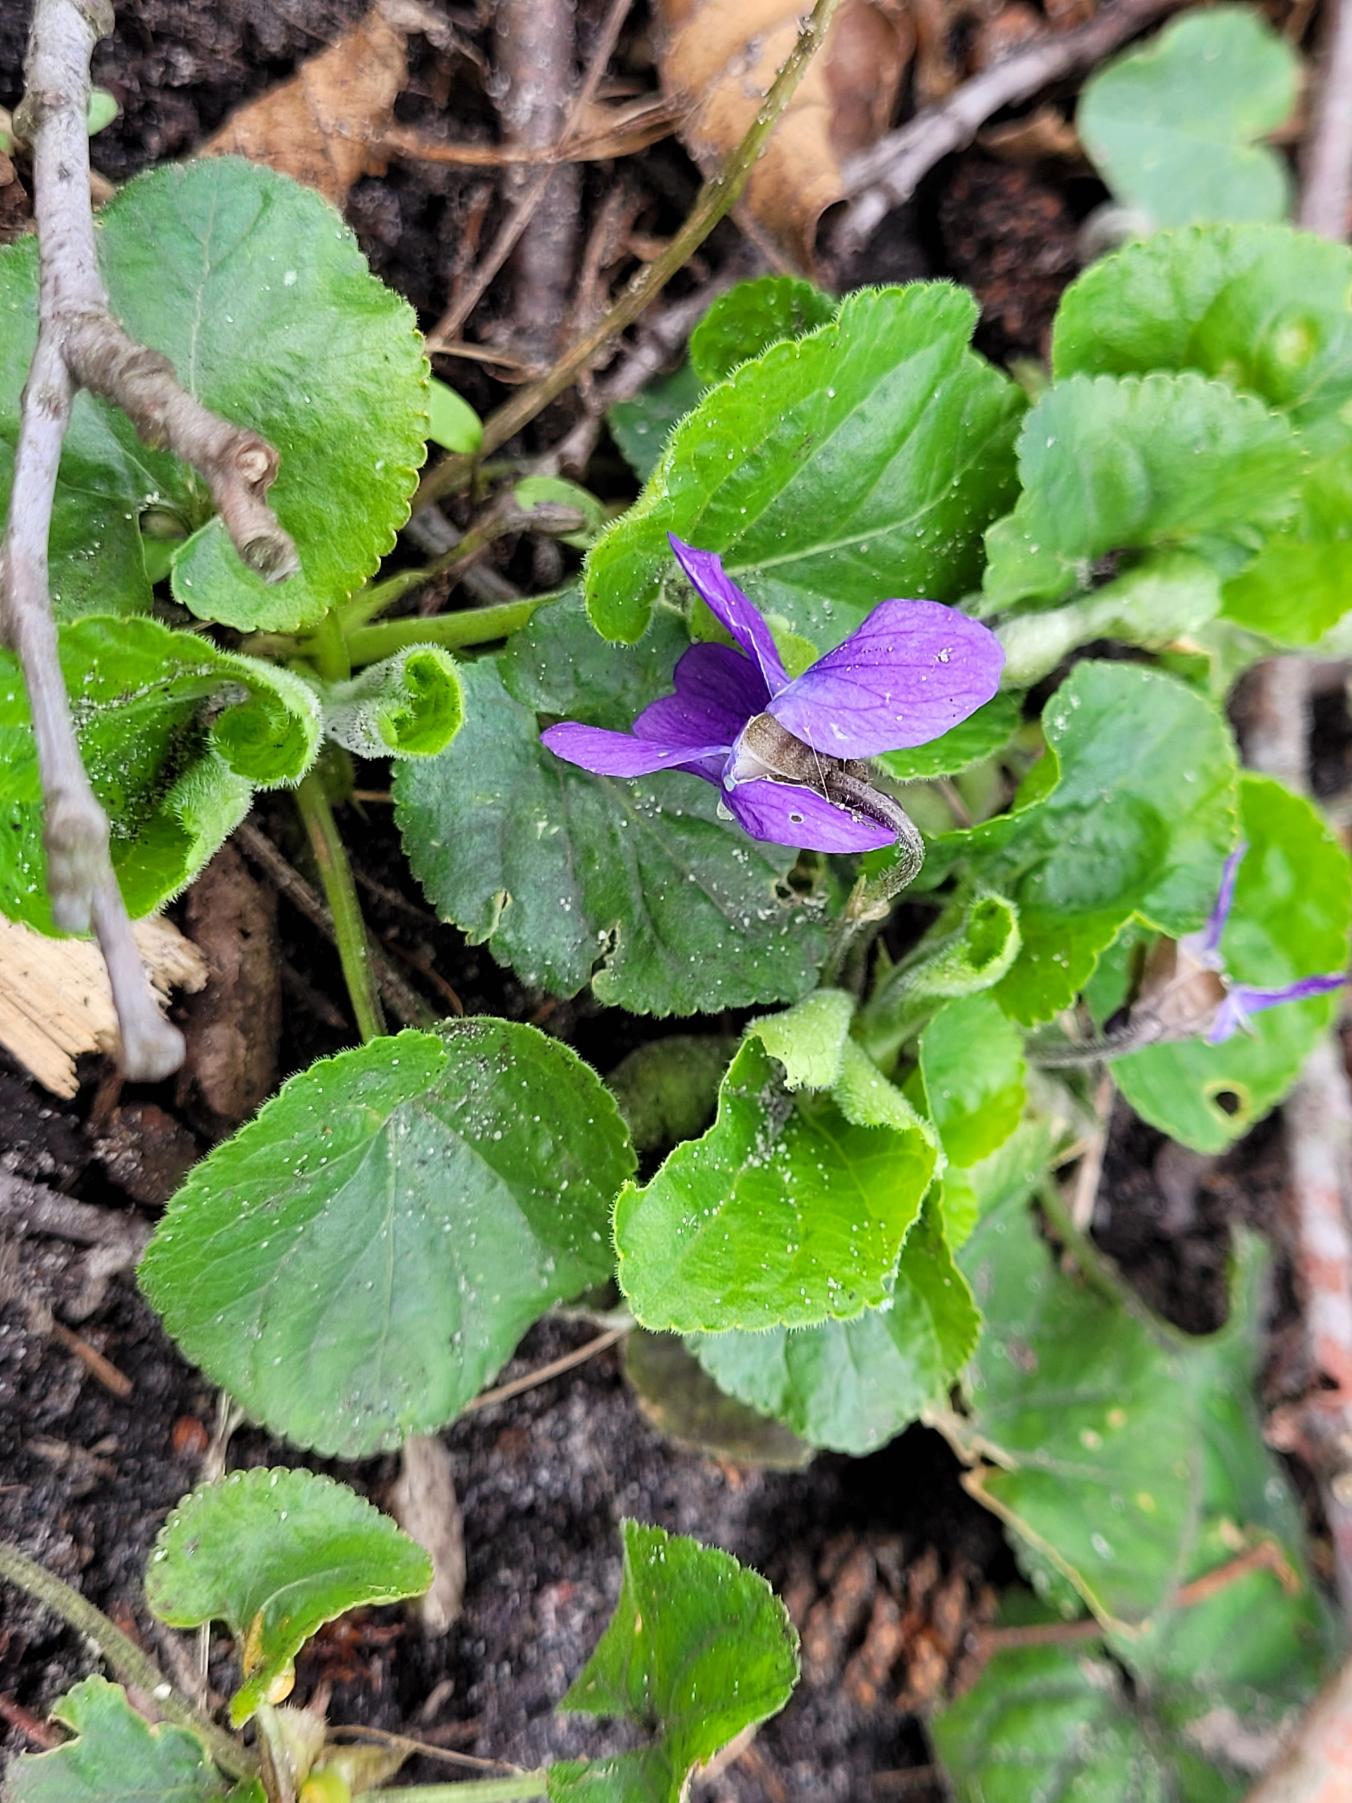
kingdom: Plantae
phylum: Tracheophyta
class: Magnoliopsida
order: Malpighiales
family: Violaceae
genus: Viola
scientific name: Viola odorata
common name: Marts-viol
